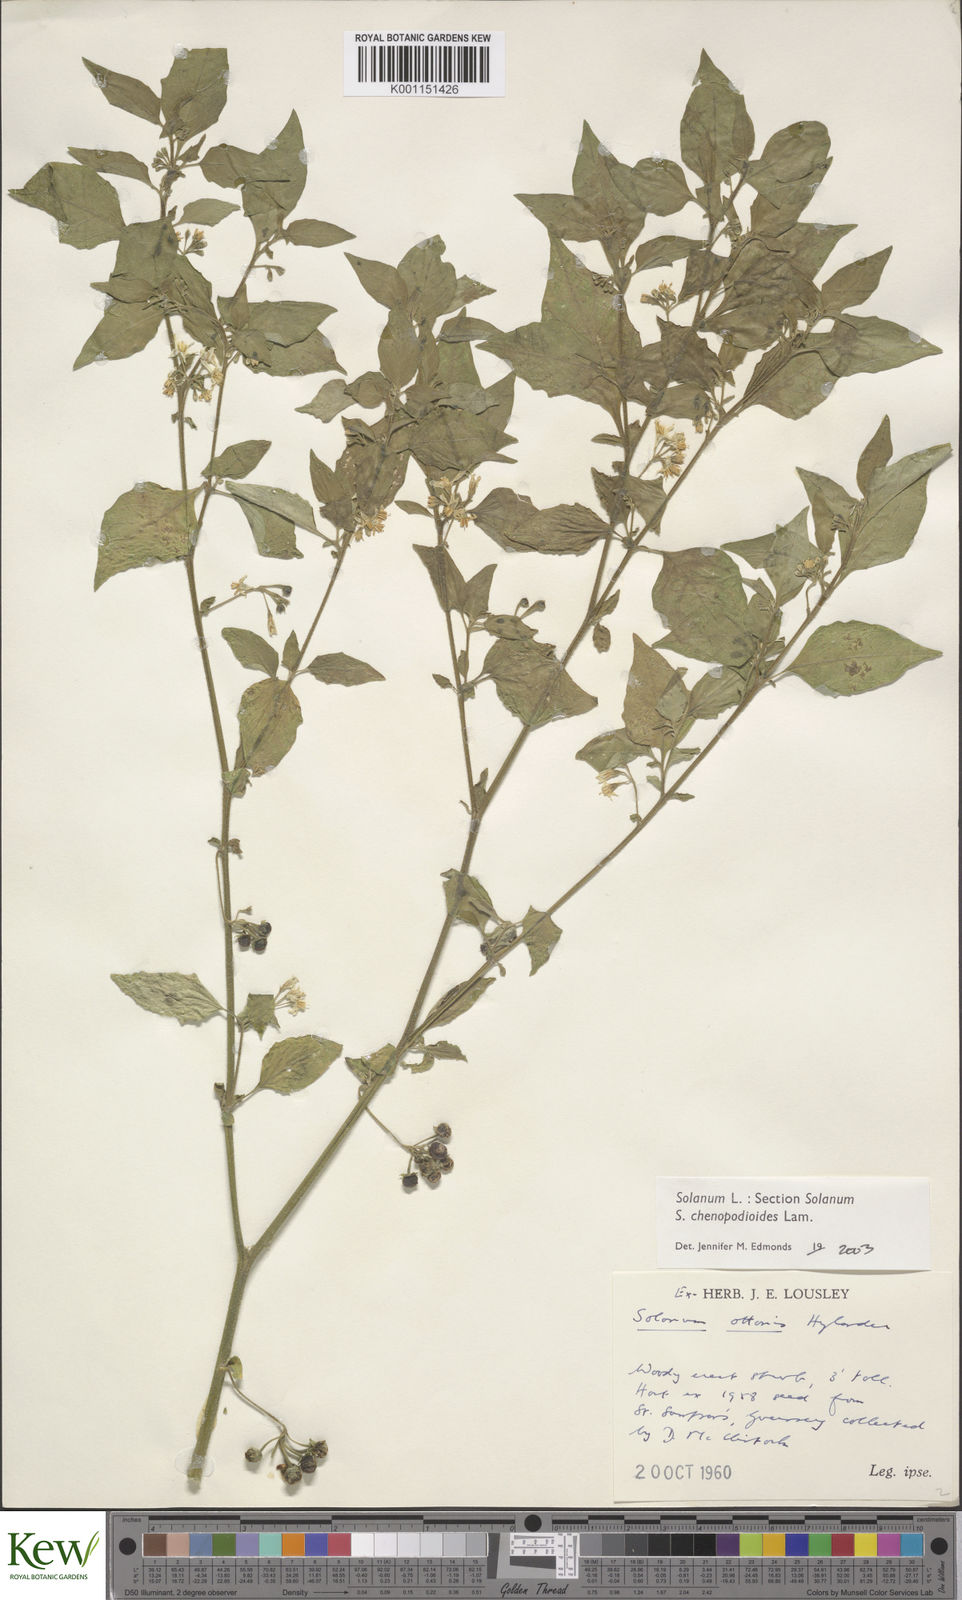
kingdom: Plantae
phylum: Tracheophyta
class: Magnoliopsida
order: Solanales
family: Solanaceae
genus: Solanum
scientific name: Solanum chenopodioides
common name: Tall nightshade
